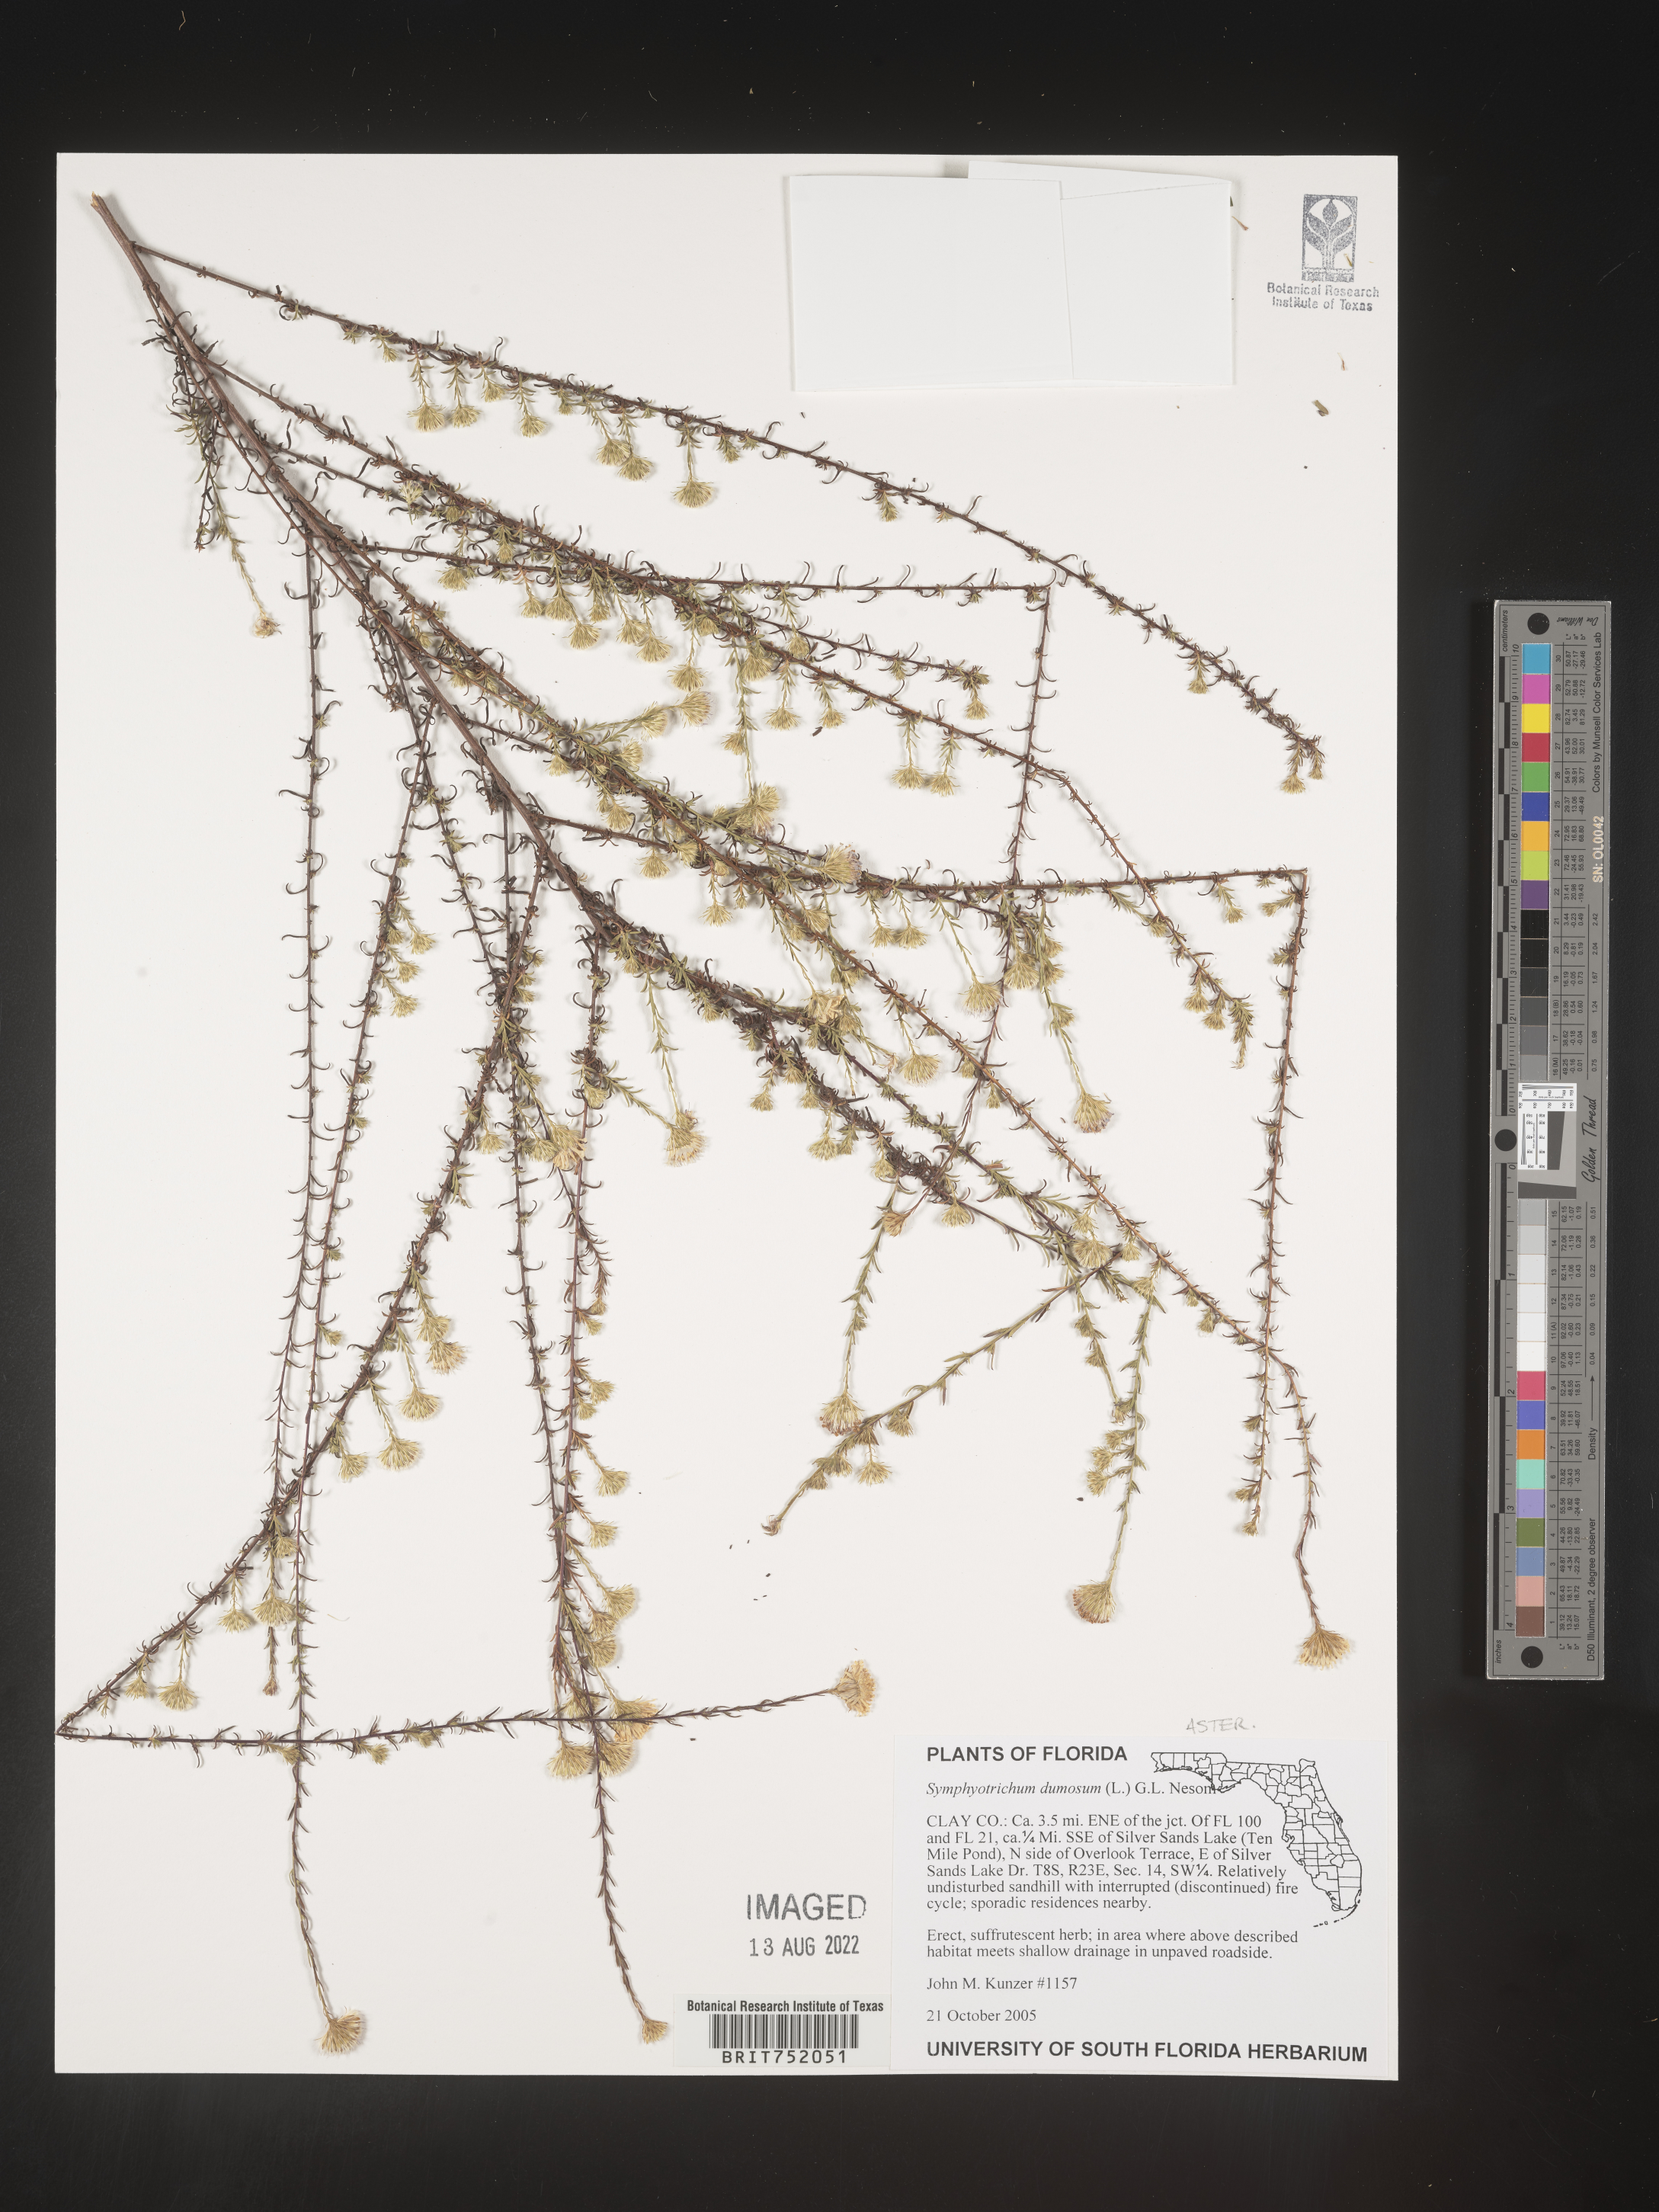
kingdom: Plantae
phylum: Tracheophyta
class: Magnoliopsida
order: Asterales
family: Asteraceae
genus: Symphyotrichum
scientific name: Symphyotrichum dumosum
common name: Bushy aster
